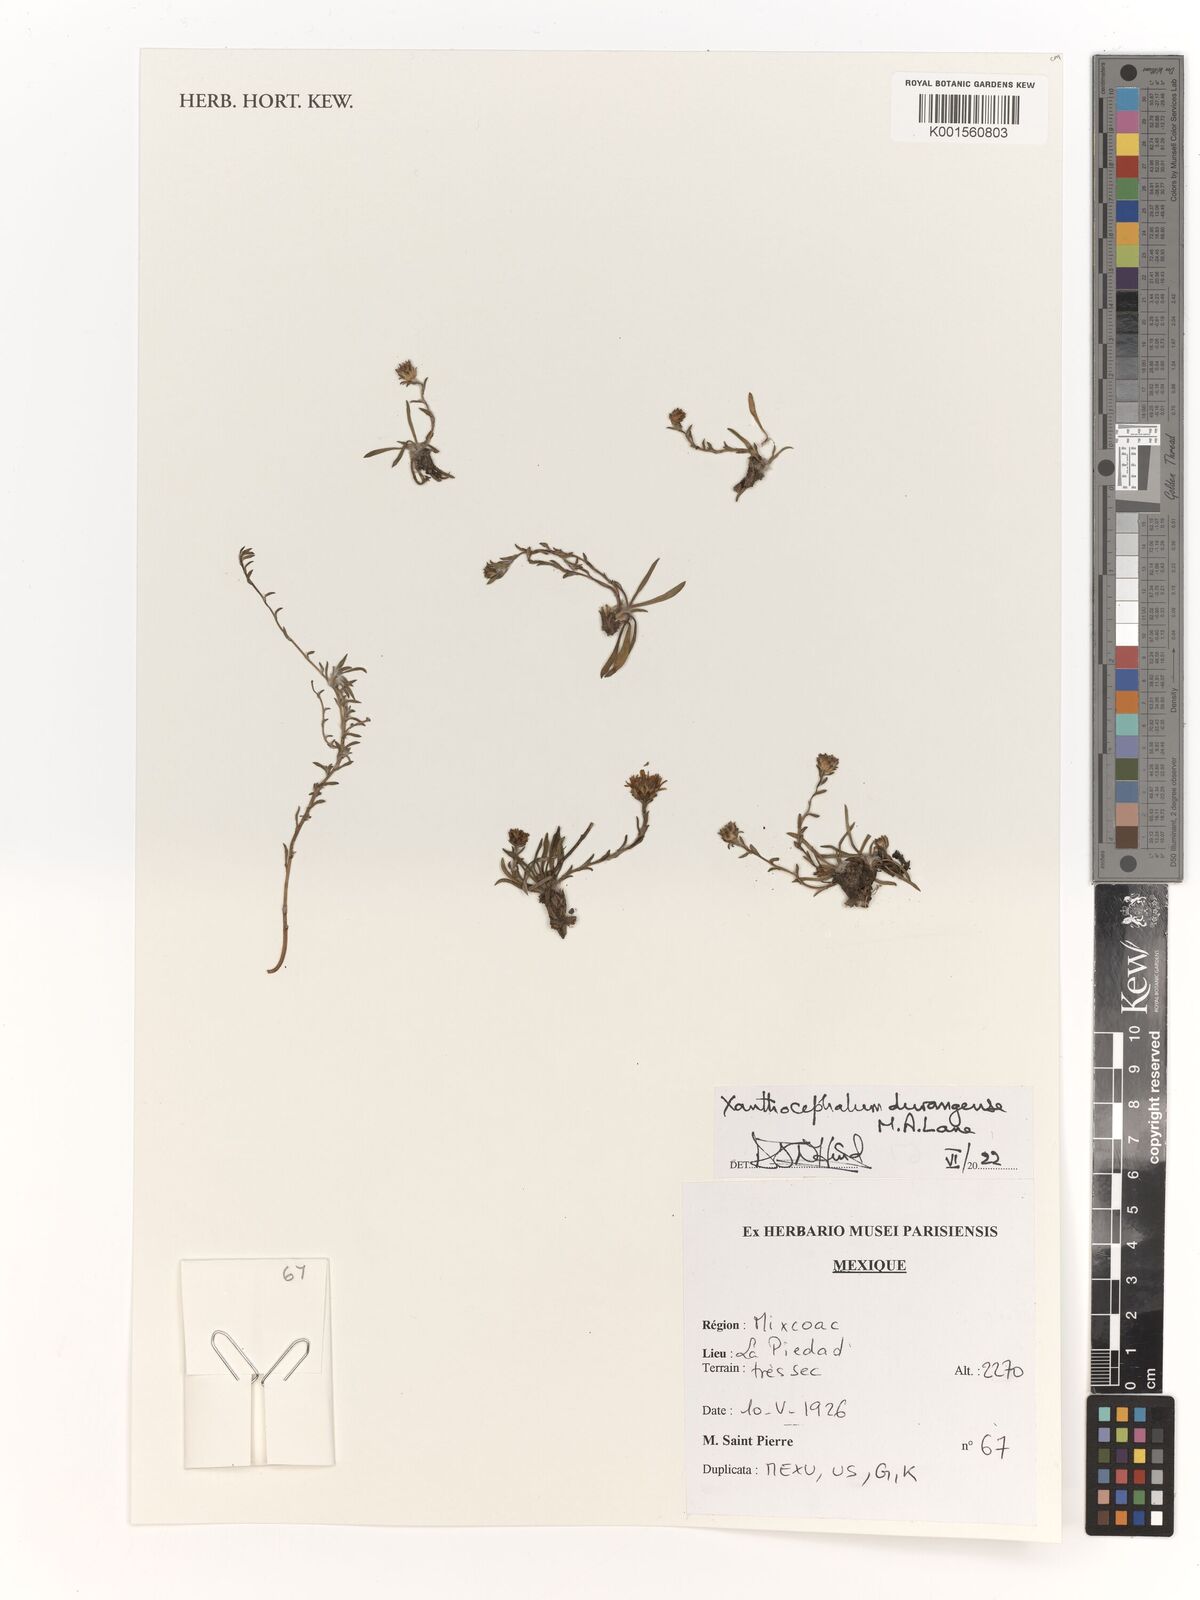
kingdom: Plantae
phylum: Tracheophyta
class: Magnoliopsida
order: Asterales
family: Asteraceae
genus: Xanthocephalum
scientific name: Xanthocephalum durangense
